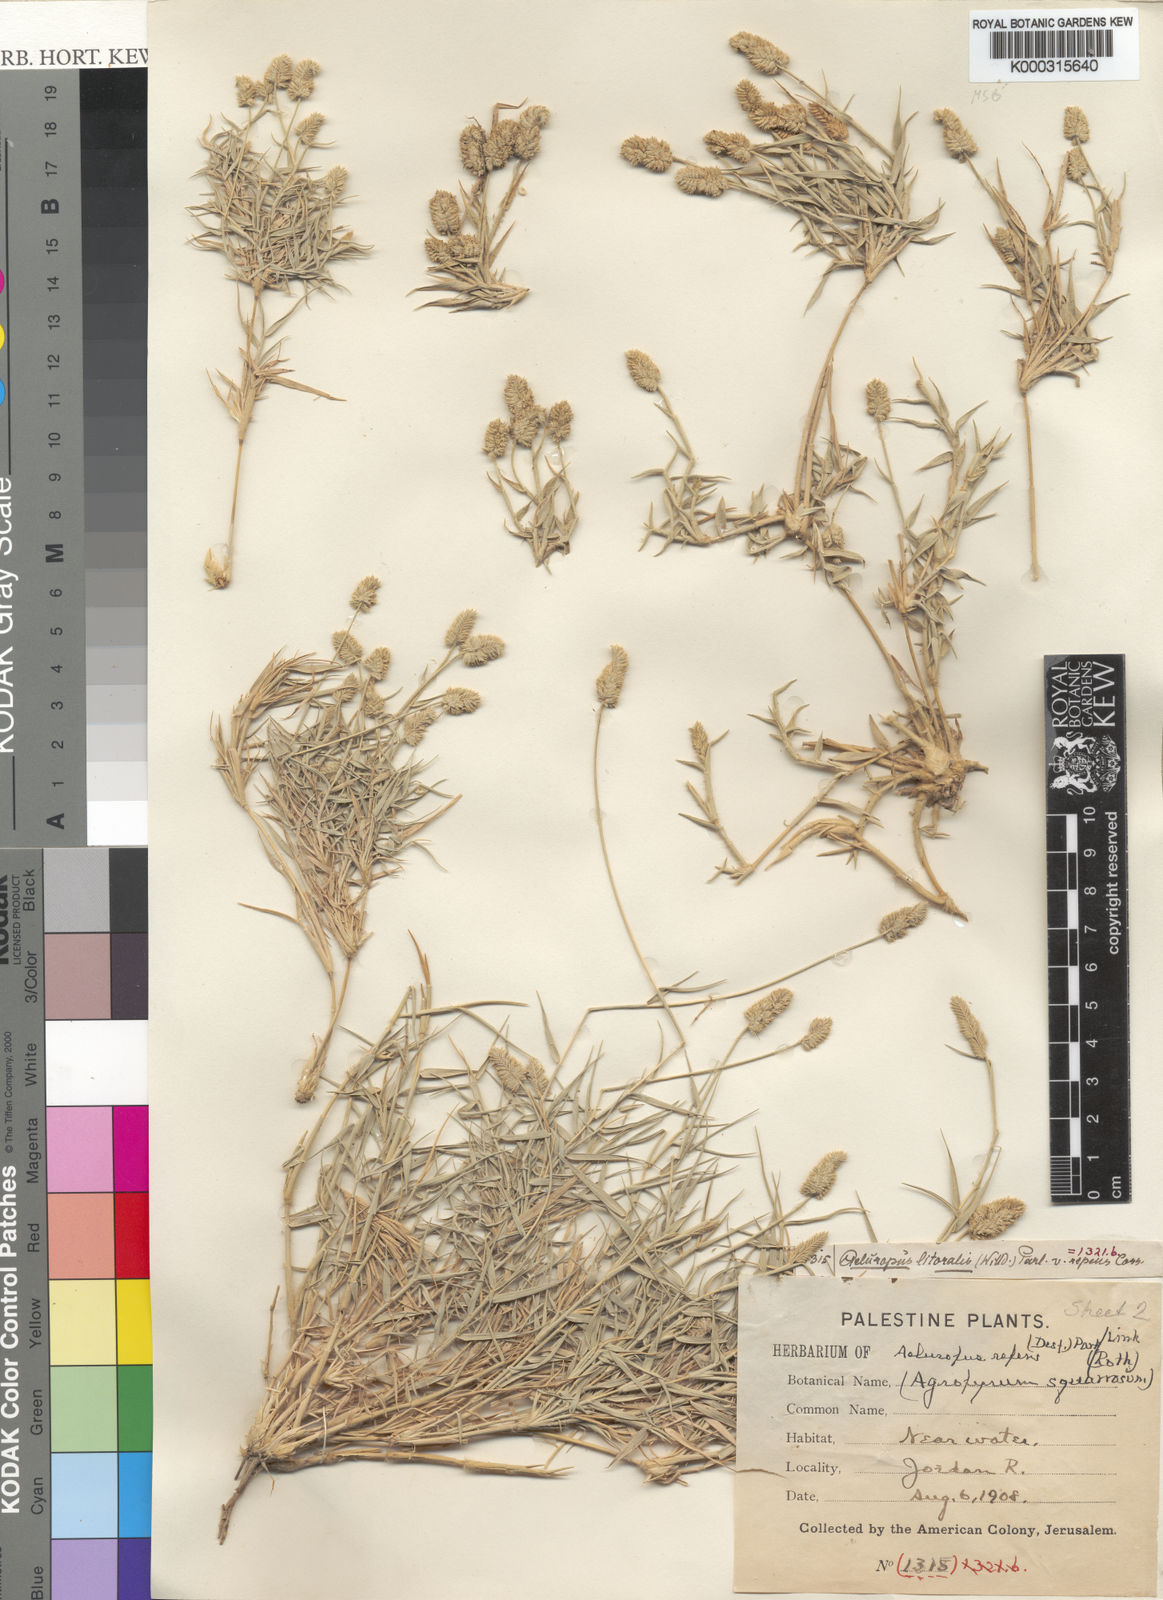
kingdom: Plantae
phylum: Tracheophyta
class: Liliopsida
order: Poales
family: Poaceae
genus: Aeluropus
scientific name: Aeluropus lagopoides
